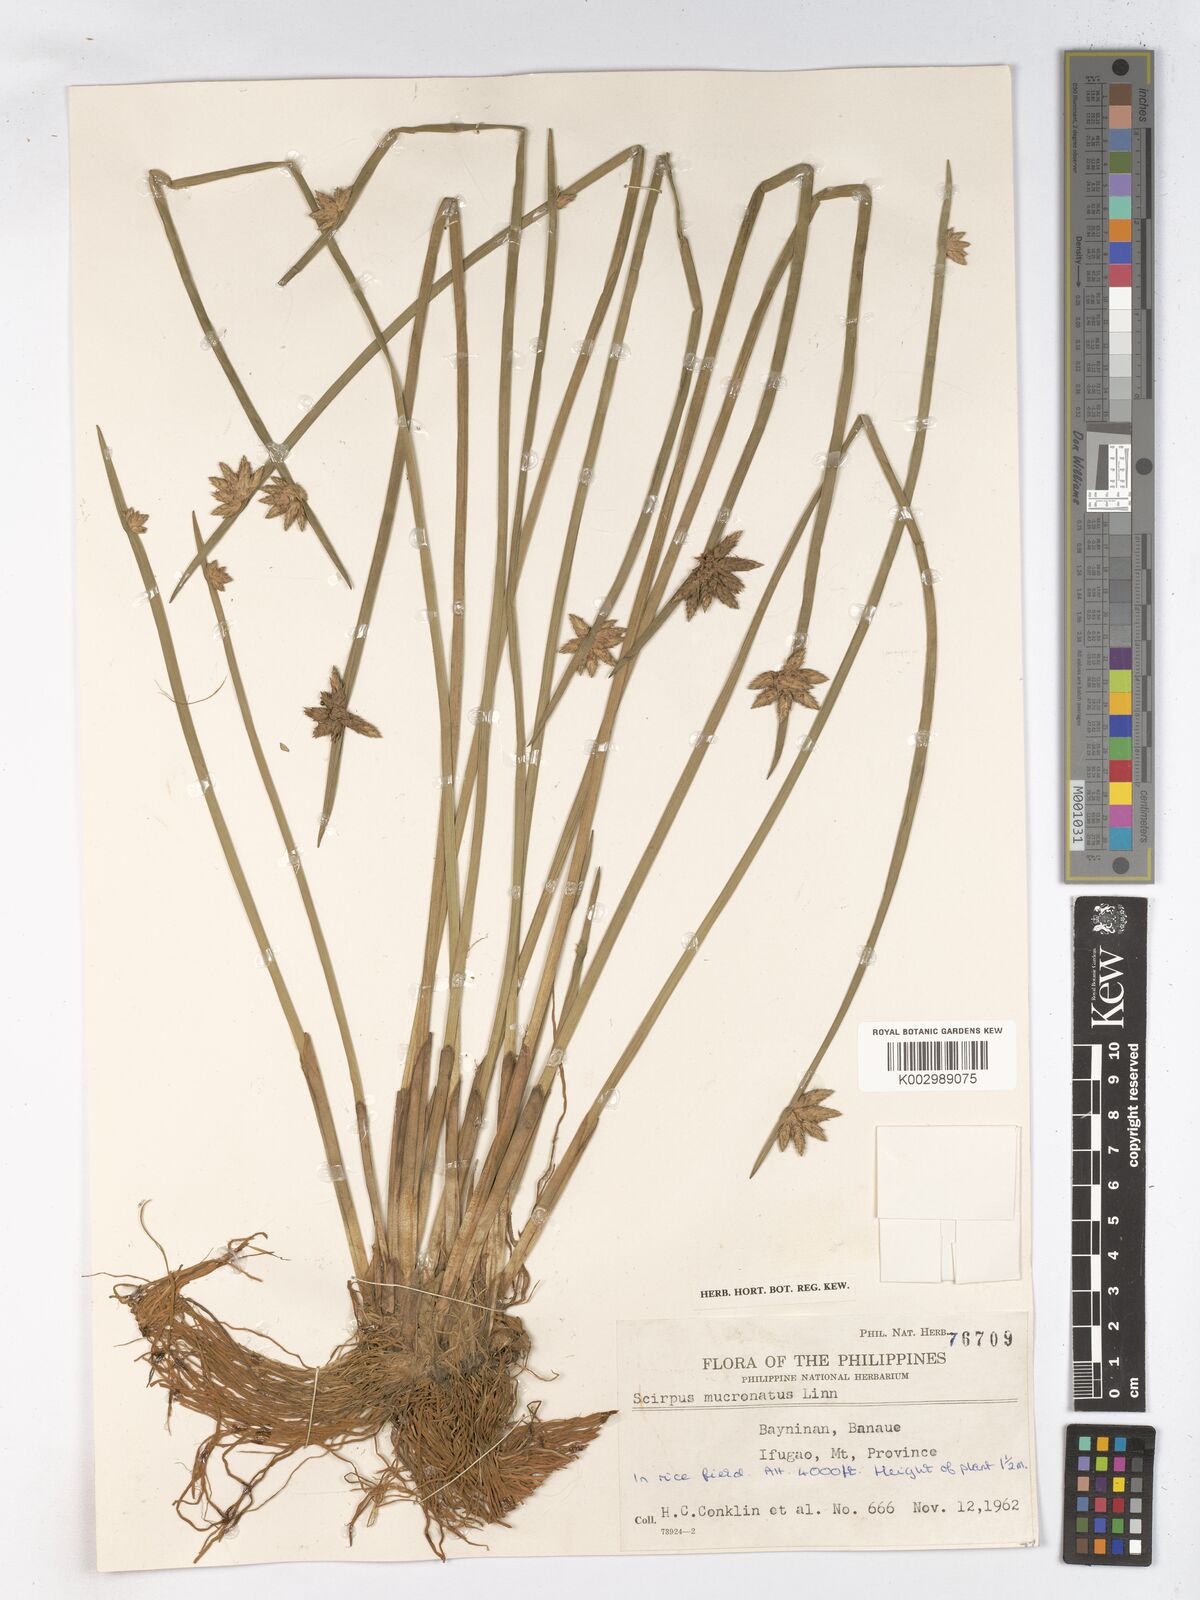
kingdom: Plantae
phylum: Tracheophyta
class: Liliopsida
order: Poales
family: Cyperaceae
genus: Schoenoplectiella
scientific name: Schoenoplectiella mucronata
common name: Bog bulrush
